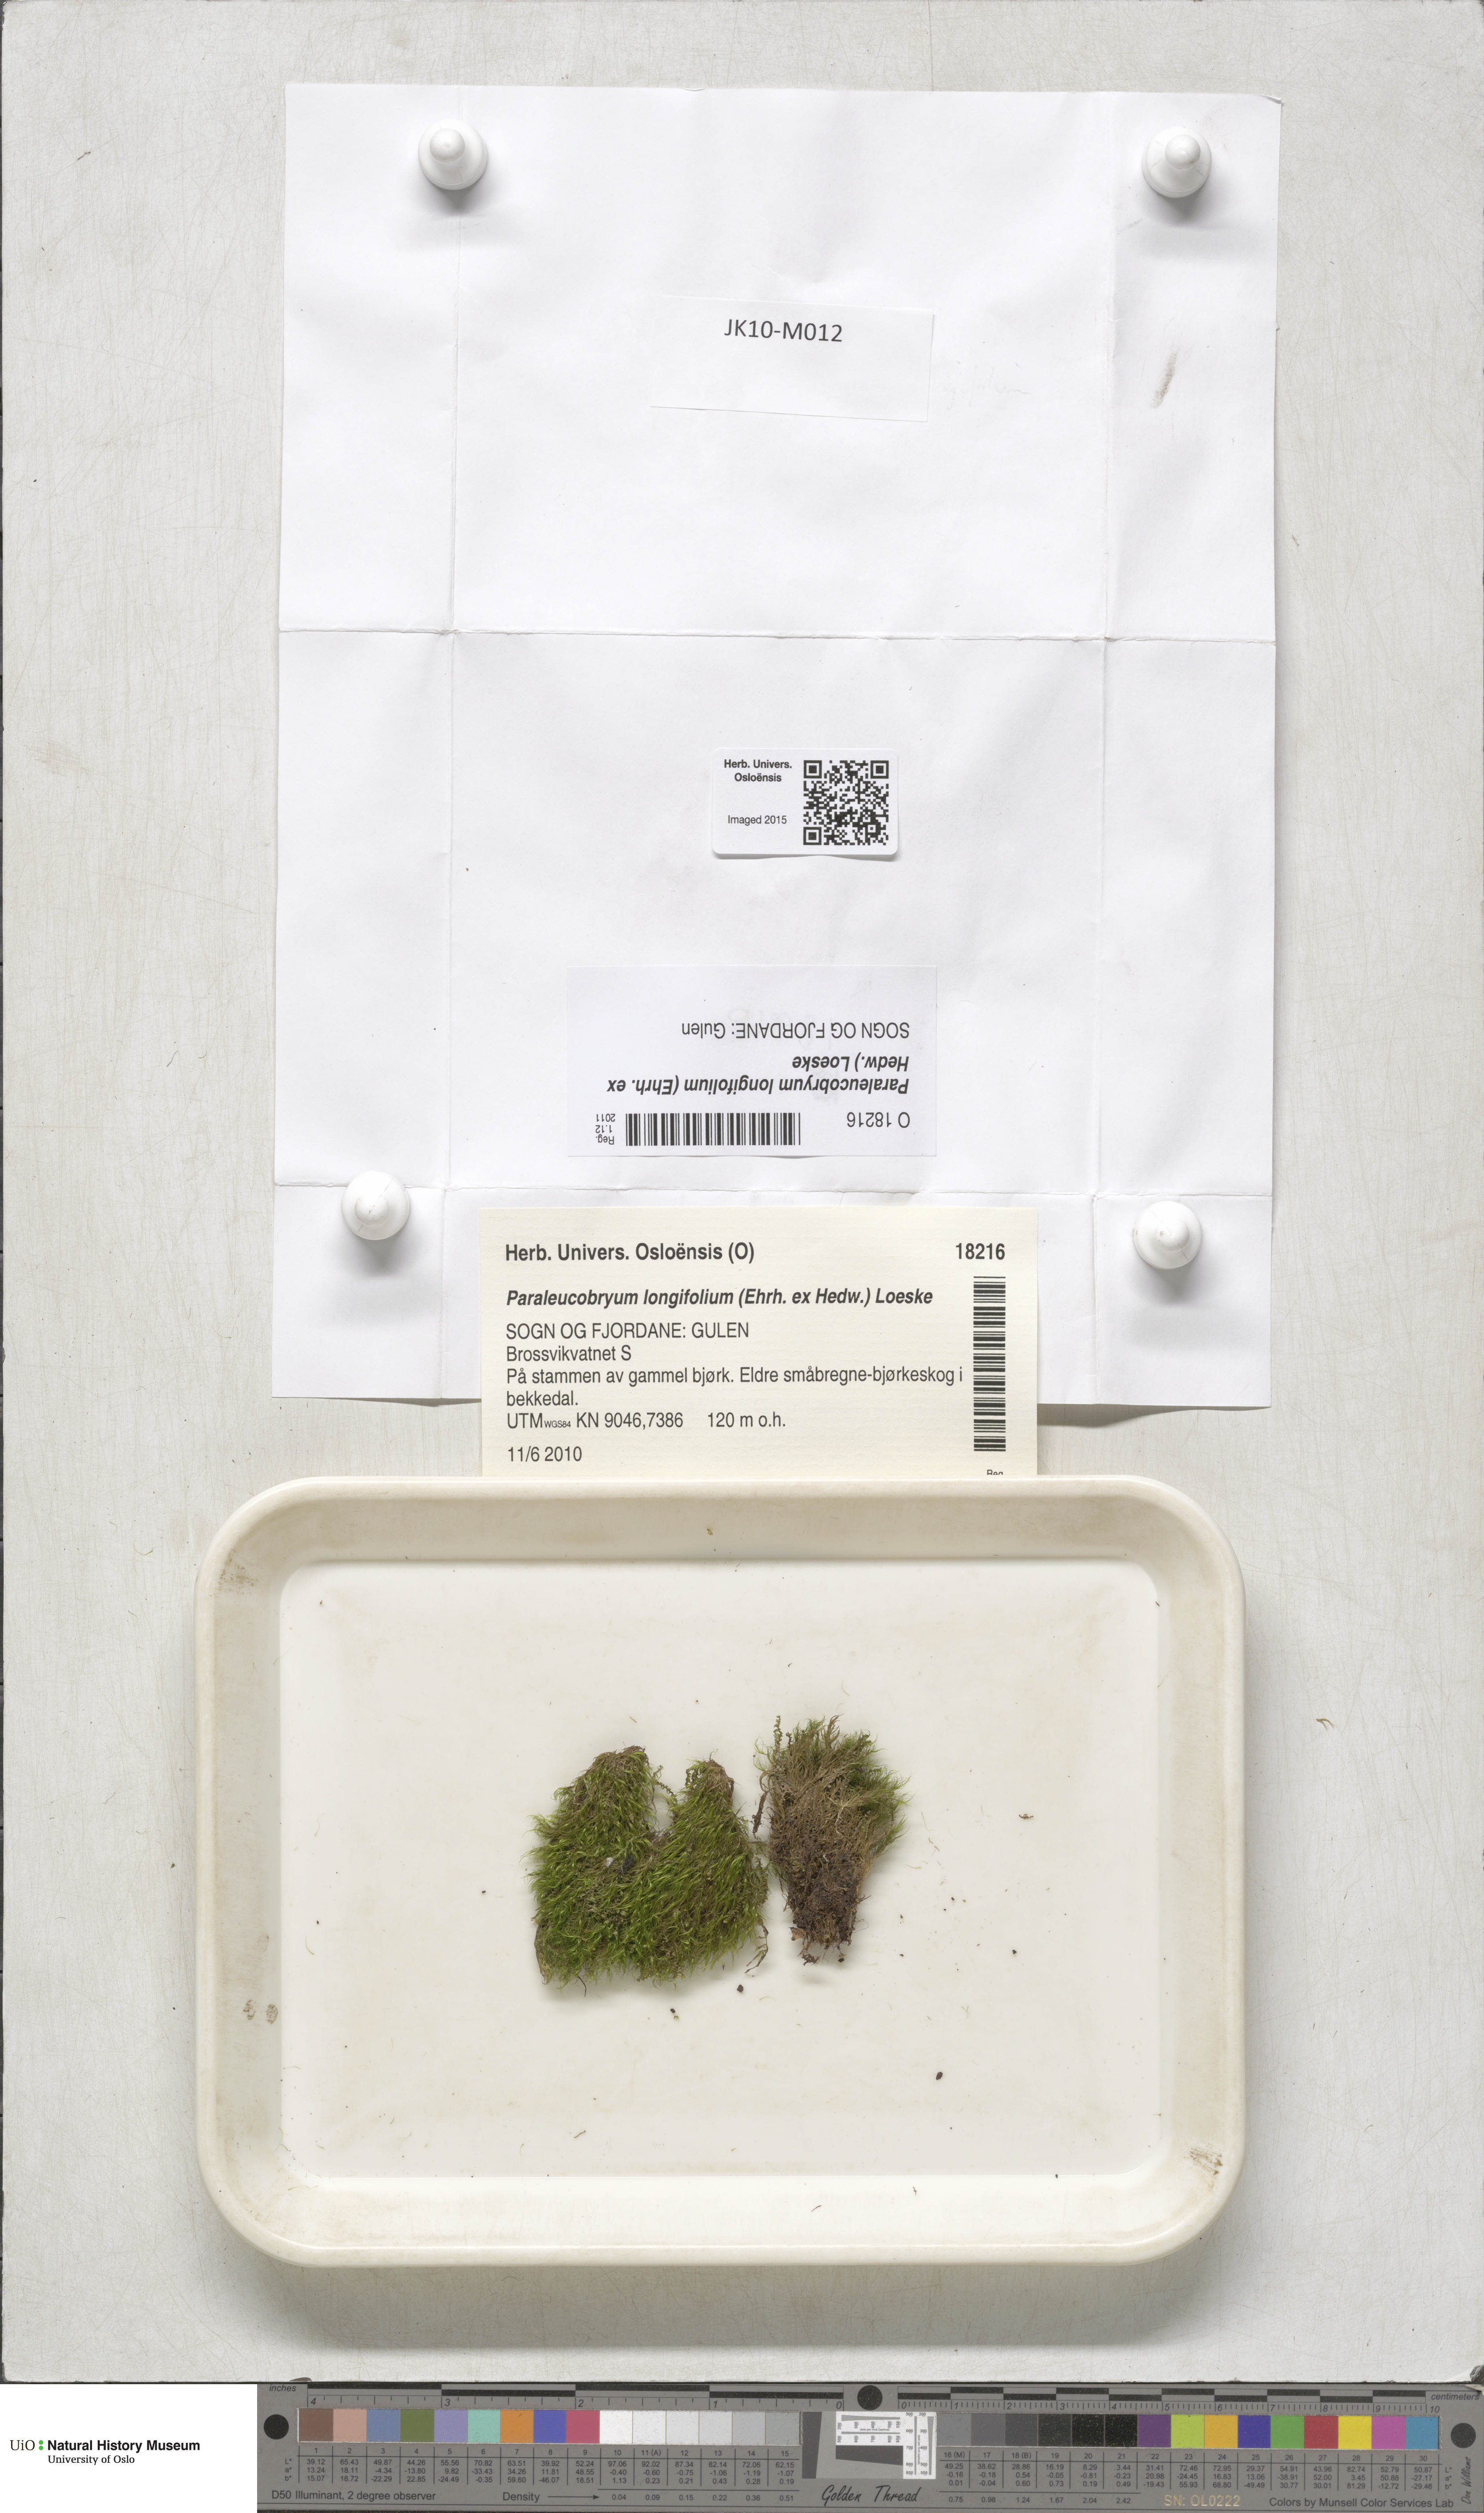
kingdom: Plantae
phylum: Bryophyta
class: Bryopsida
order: Dicranales
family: Dicranaceae
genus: Paraleucobryum
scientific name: Paraleucobryum longifolium
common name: Long-leaved fork moss
